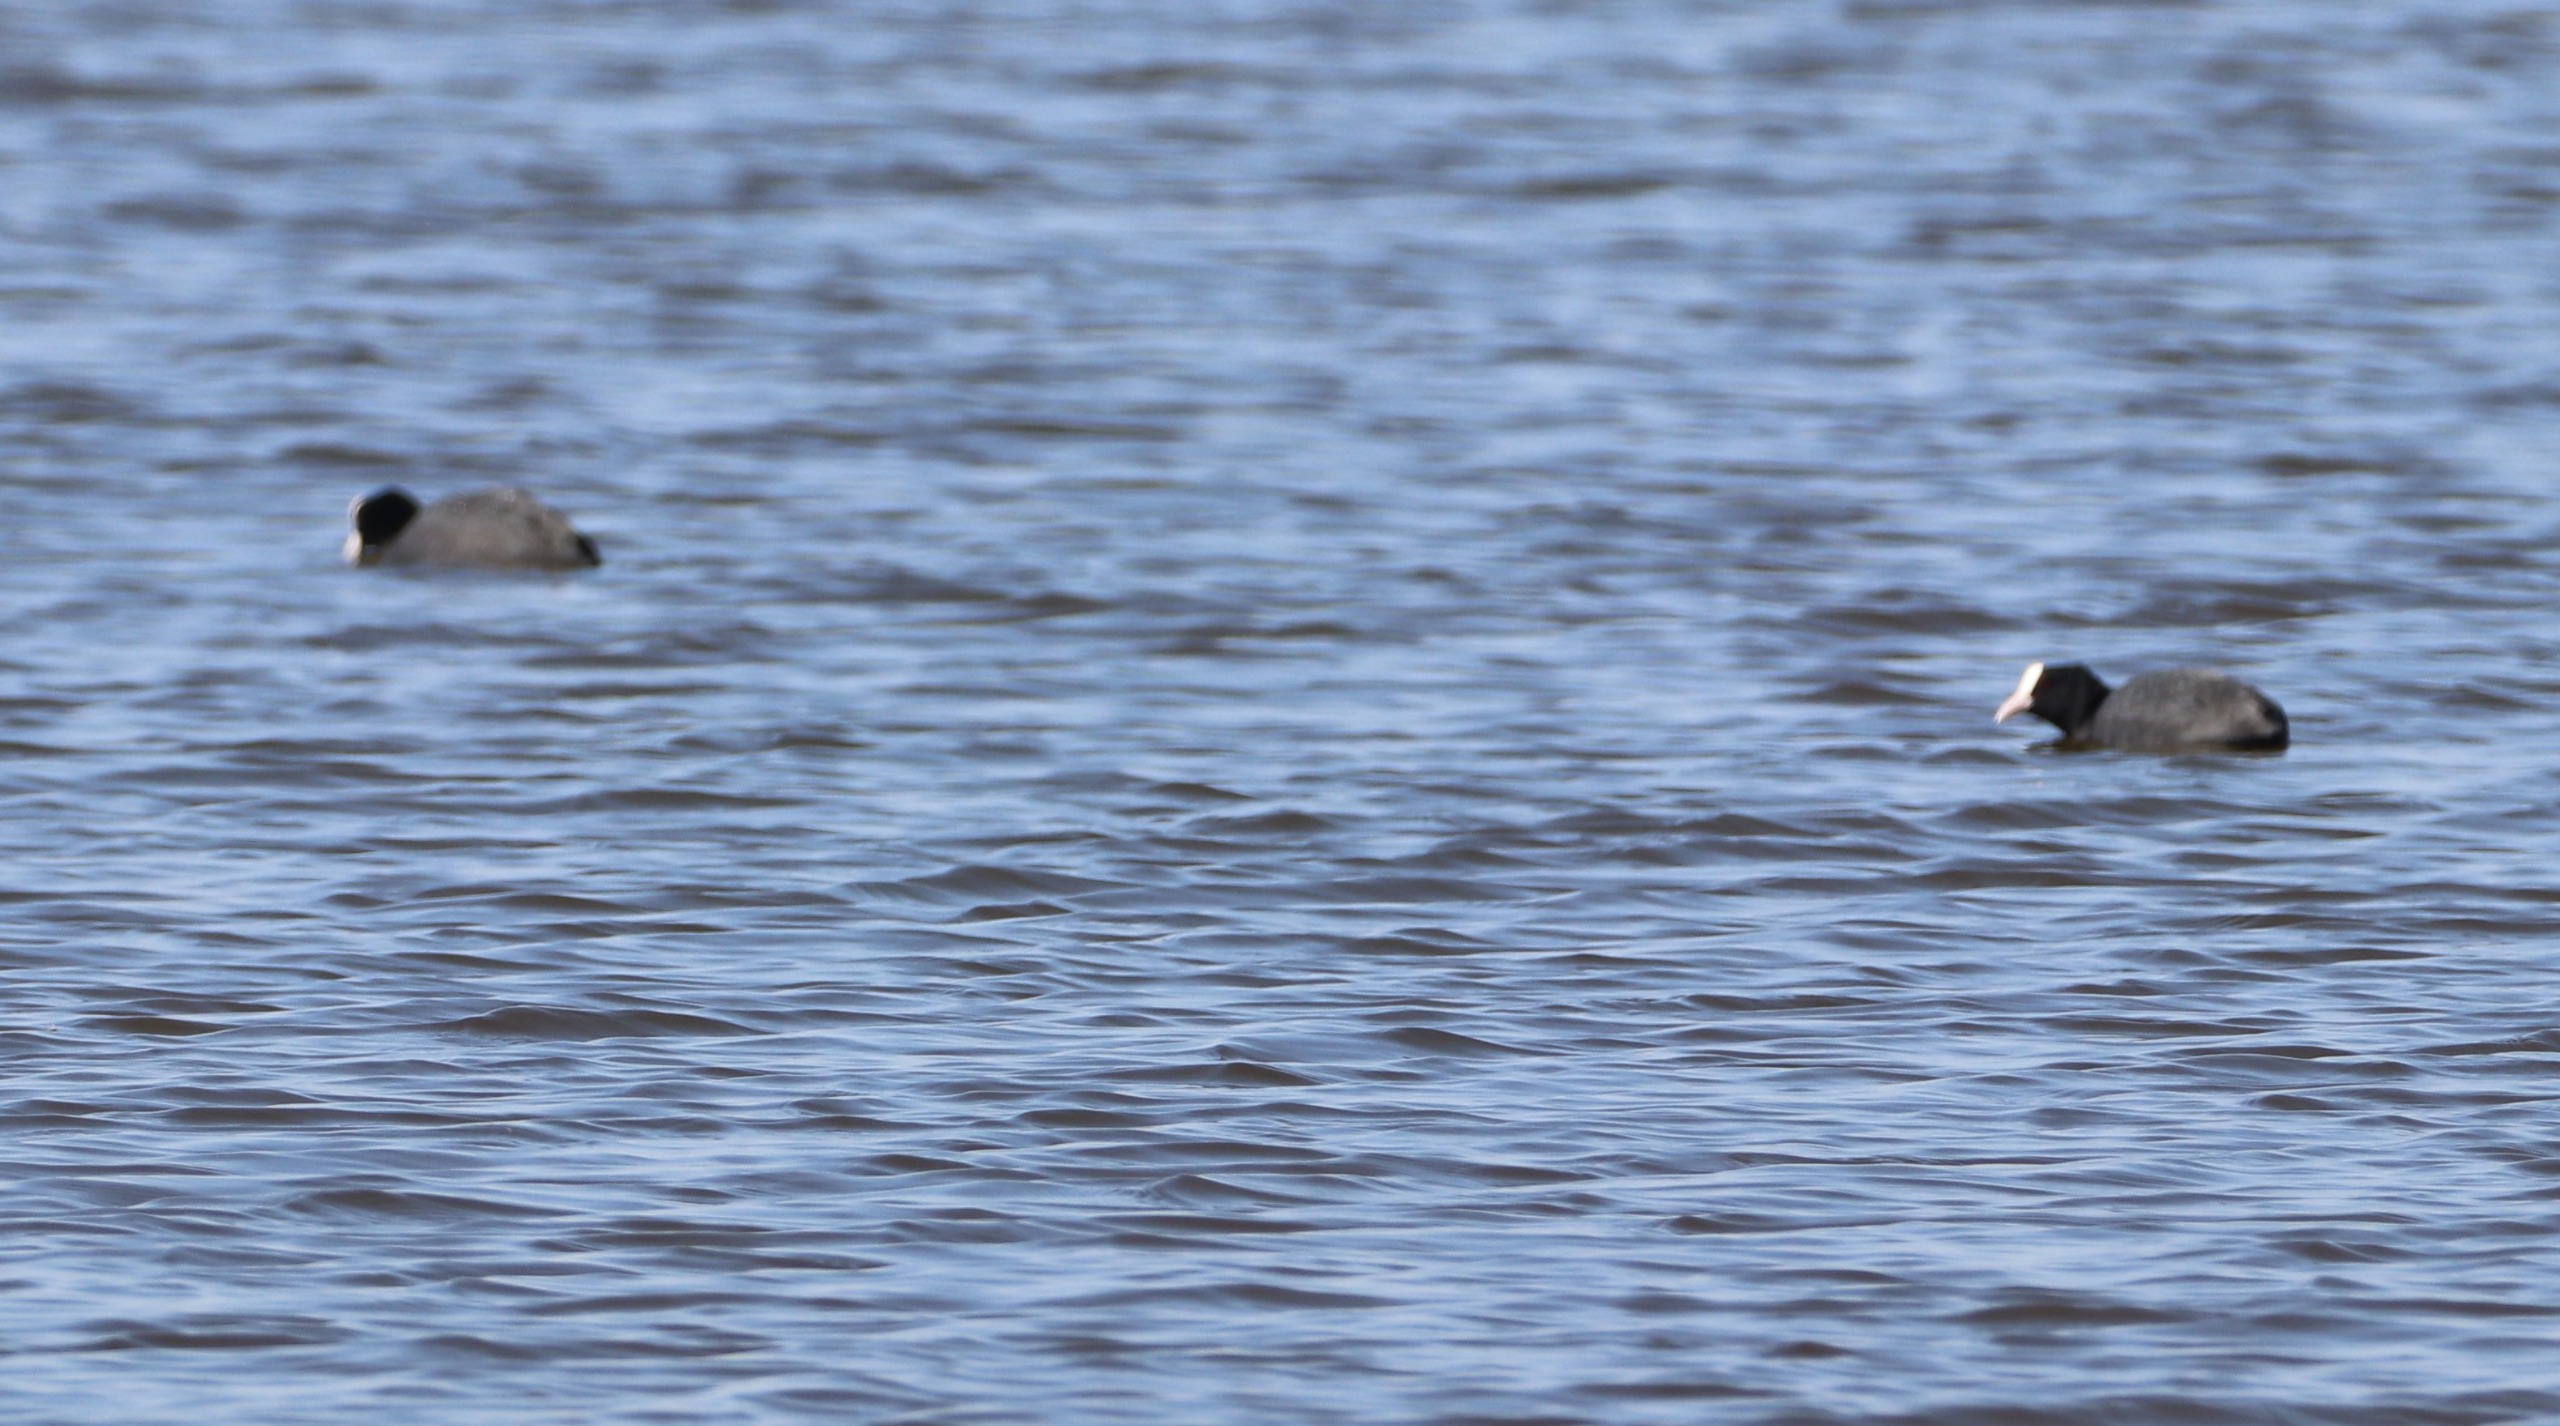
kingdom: Animalia
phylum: Chordata
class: Aves
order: Gruiformes
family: Rallidae
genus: Fulica
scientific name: Fulica atra
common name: Blishøne
